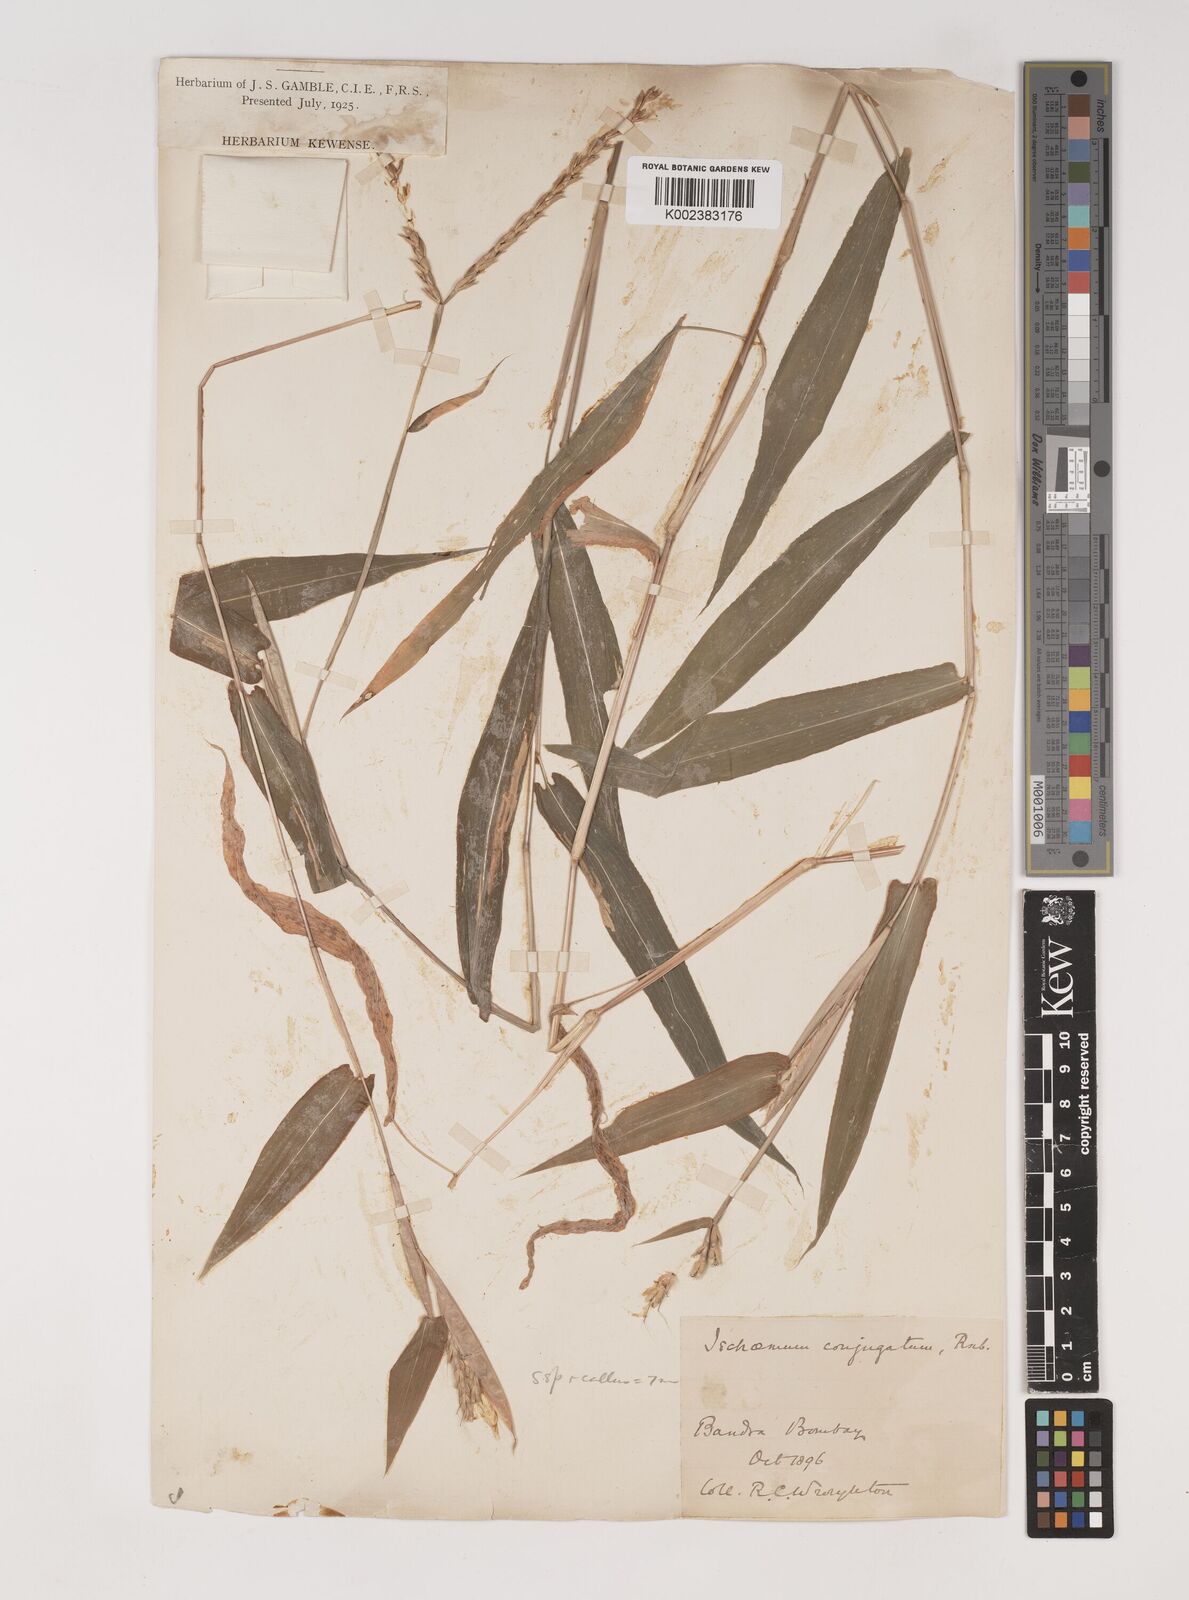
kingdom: Plantae
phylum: Tracheophyta
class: Liliopsida
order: Poales
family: Poaceae
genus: Ischaemum
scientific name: Ischaemum dalzellii
